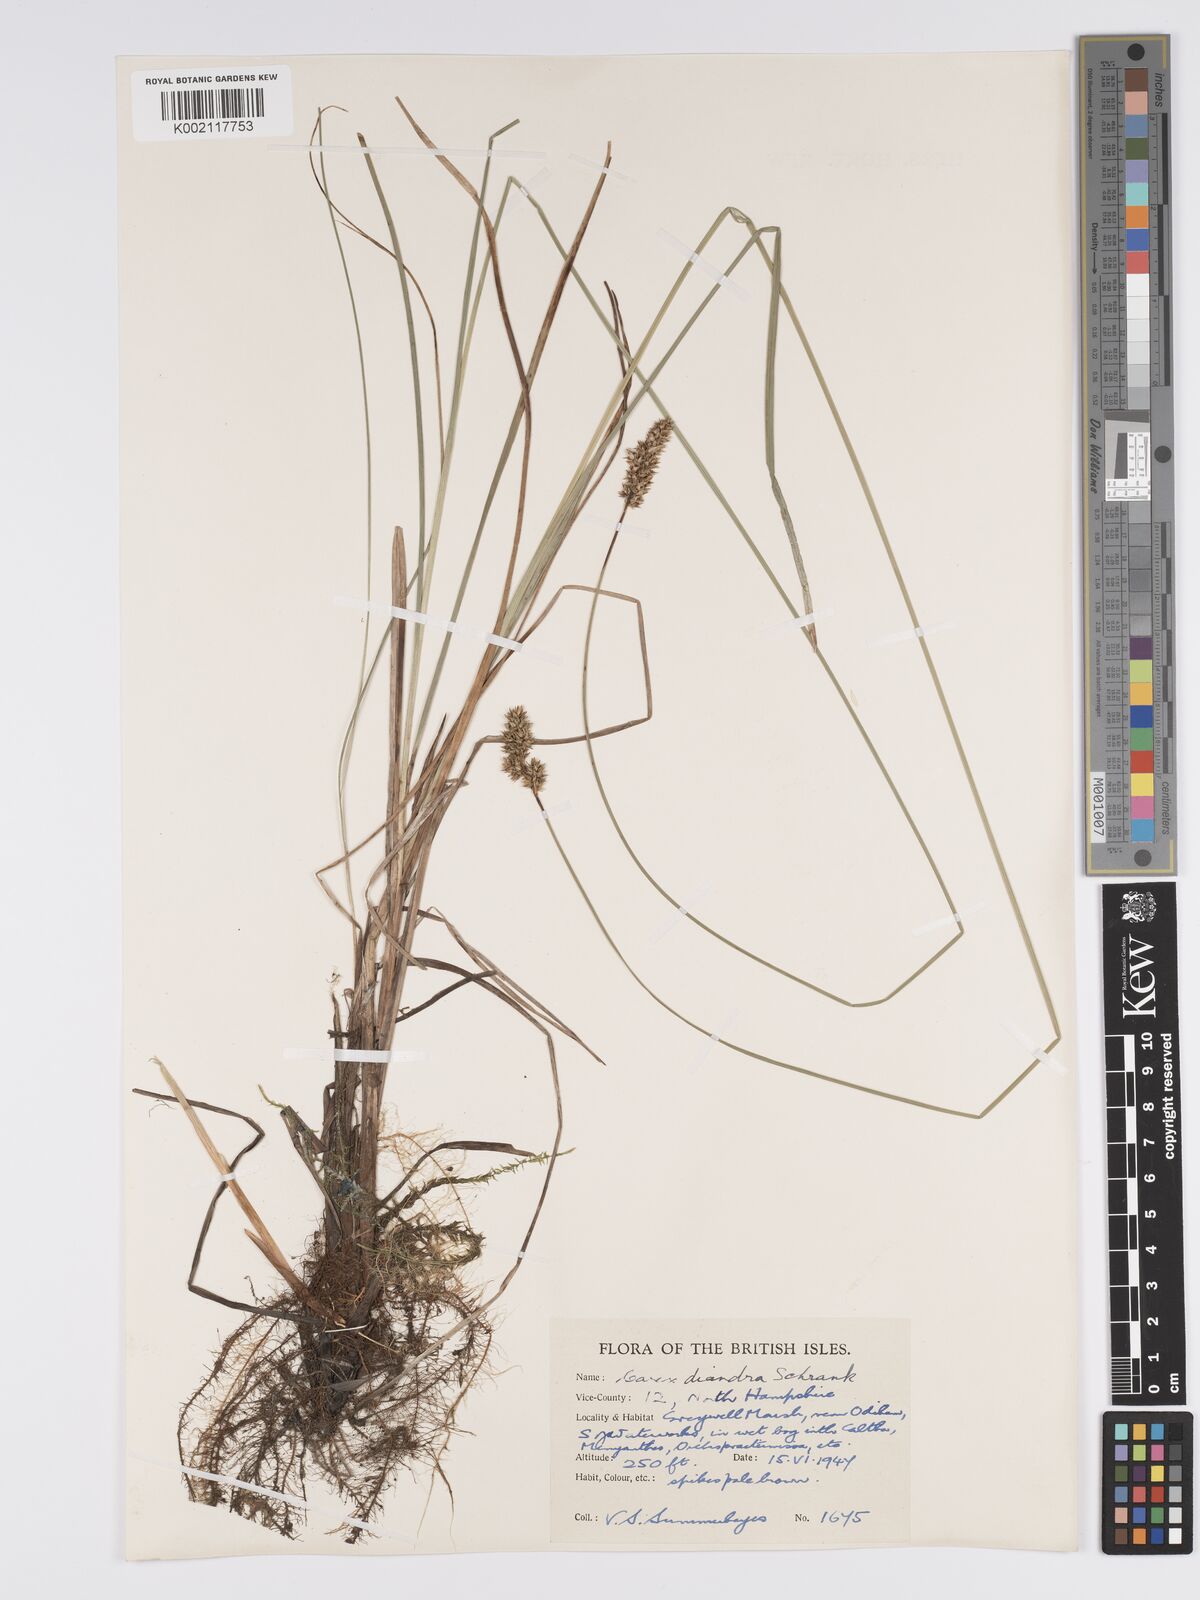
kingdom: Plantae
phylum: Tracheophyta
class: Liliopsida
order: Poales
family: Cyperaceae
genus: Carex
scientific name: Carex diandra
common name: Lesser tussock-sedge
